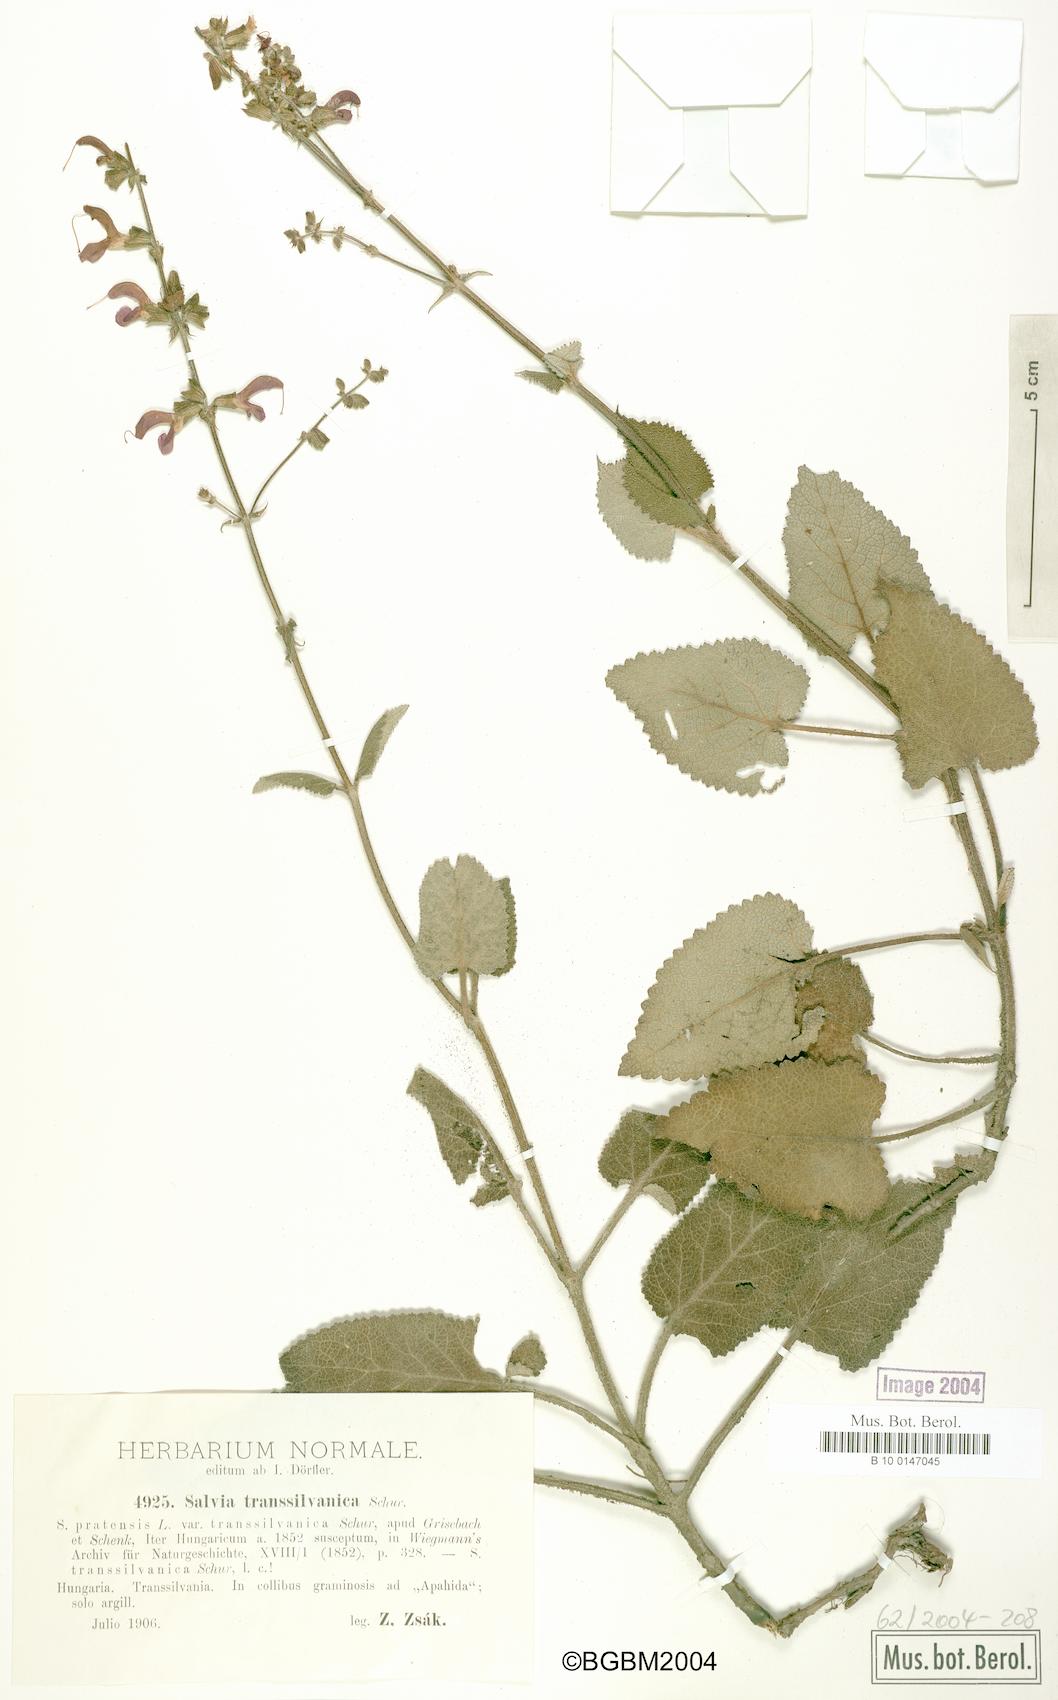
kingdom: Plantae
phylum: Tracheophyta
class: Magnoliopsida
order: Lamiales
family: Lamiaceae
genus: Salvia
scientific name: Salvia transsylvanica
